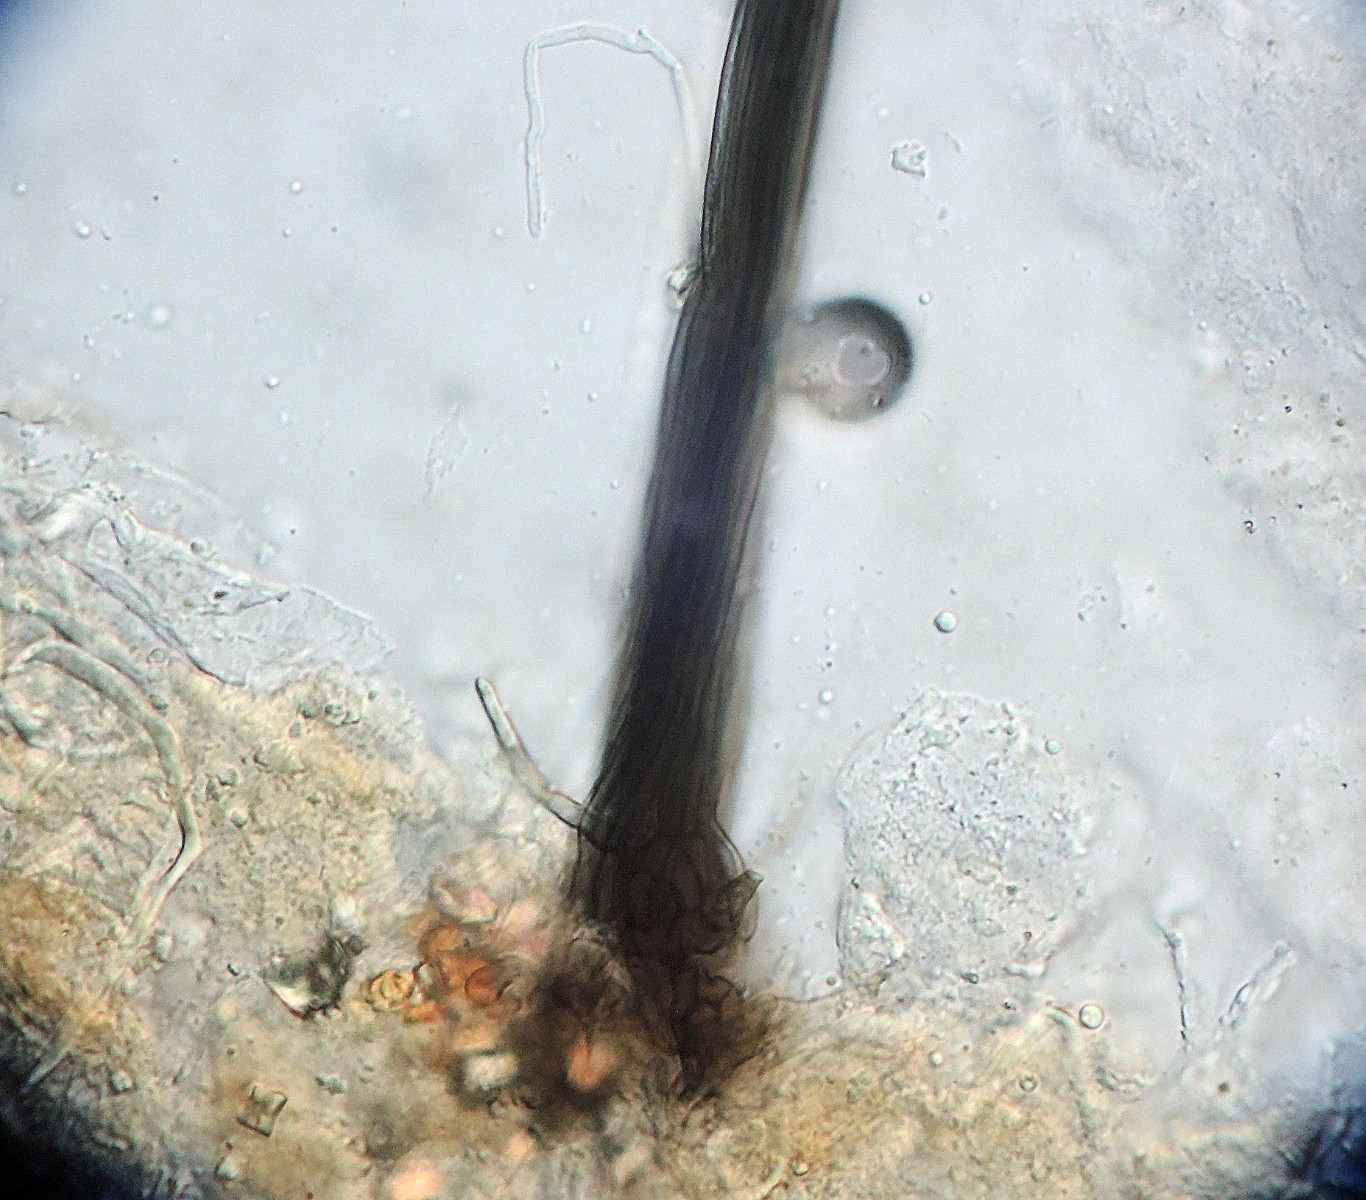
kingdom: Fungi
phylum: Ascomycota
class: Sordariomycetes
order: Microascales
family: Microascaceae
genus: Parascedosporium
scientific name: Parascedosporium putredinis
